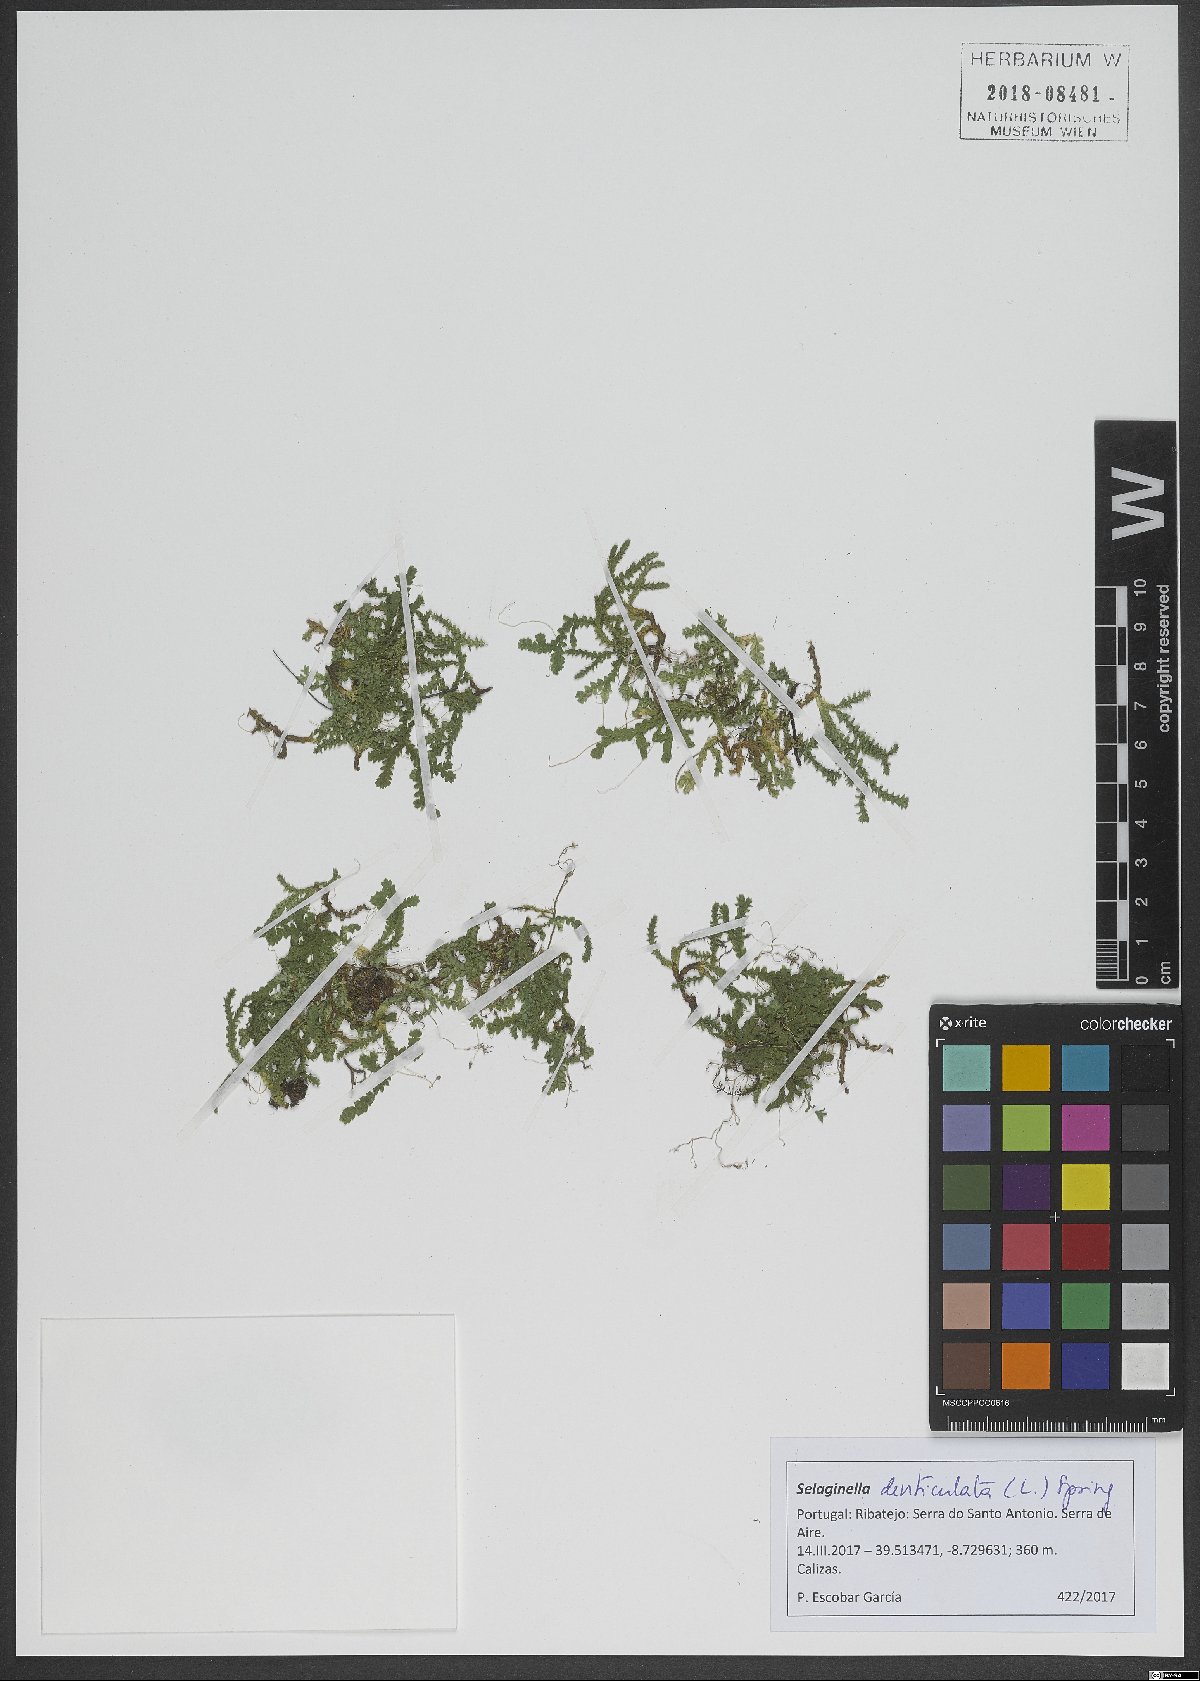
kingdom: Plantae
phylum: Tracheophyta
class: Lycopodiopsida
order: Selaginellales
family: Selaginellaceae
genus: Selaginella
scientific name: Selaginella denticulata
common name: Toothed-leaved clubmoss
